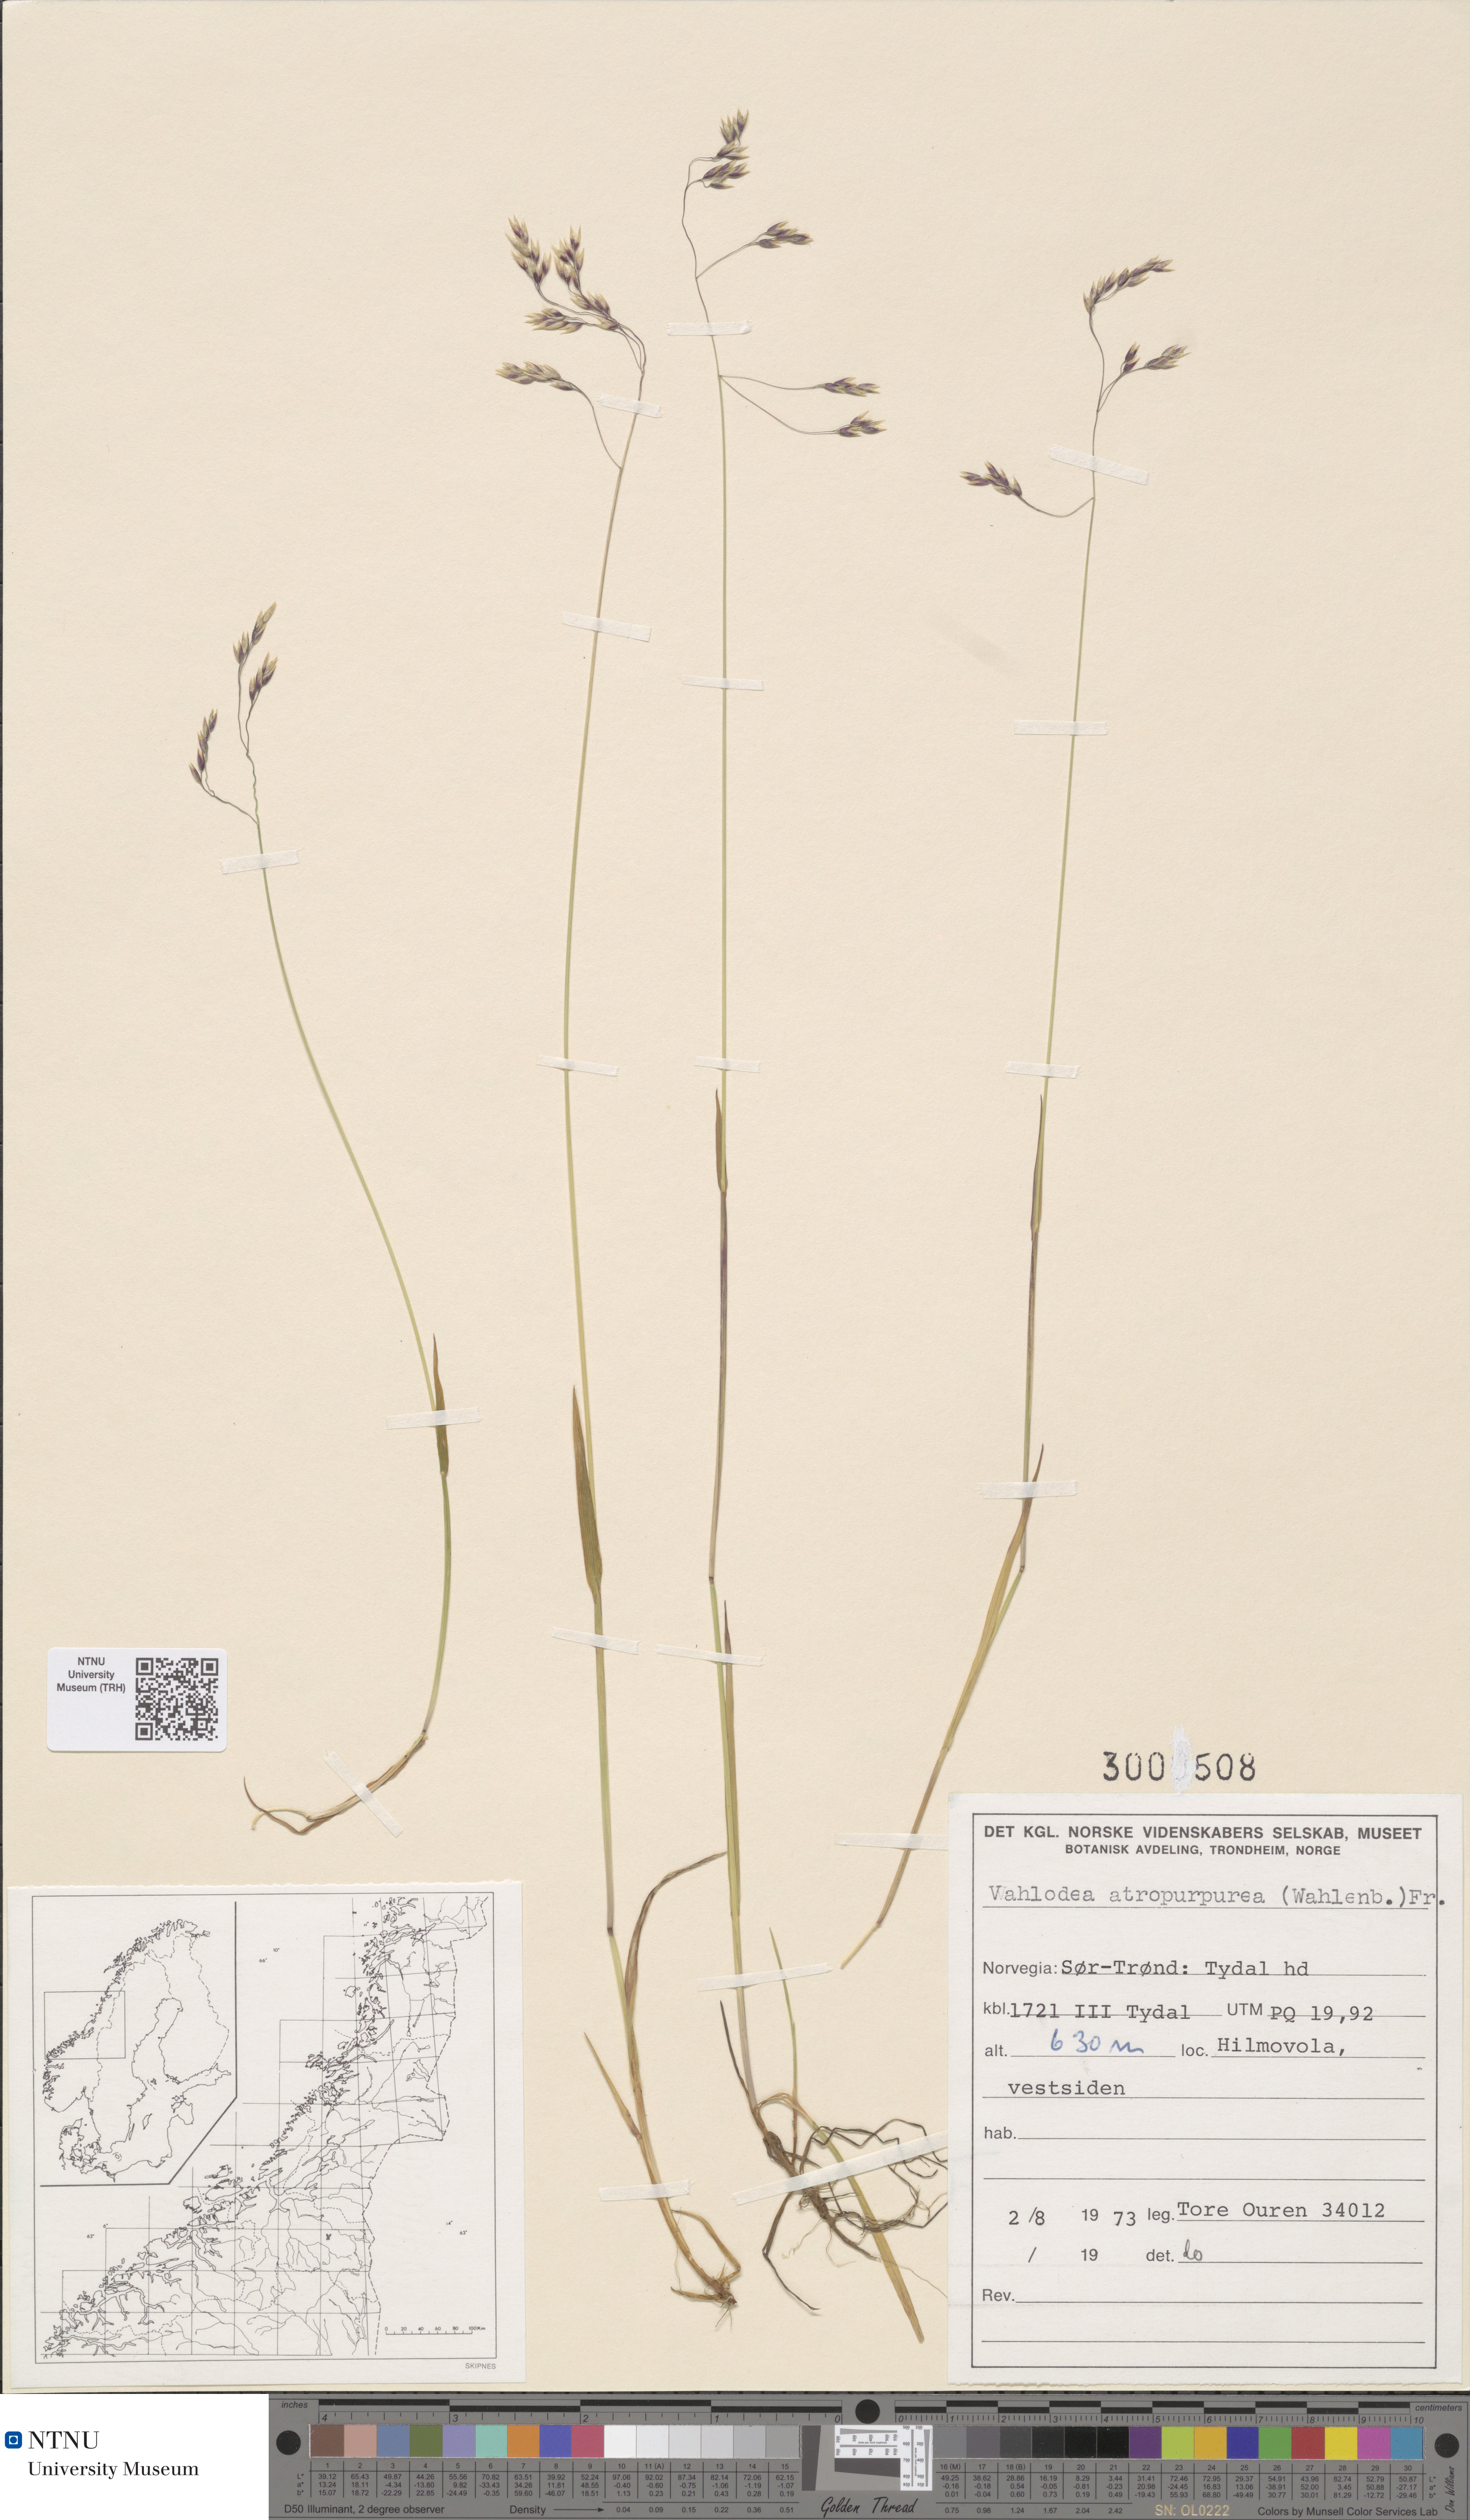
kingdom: Plantae
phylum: Tracheophyta
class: Liliopsida
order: Poales
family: Poaceae
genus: Vahlodea
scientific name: Vahlodea atropurpurea
